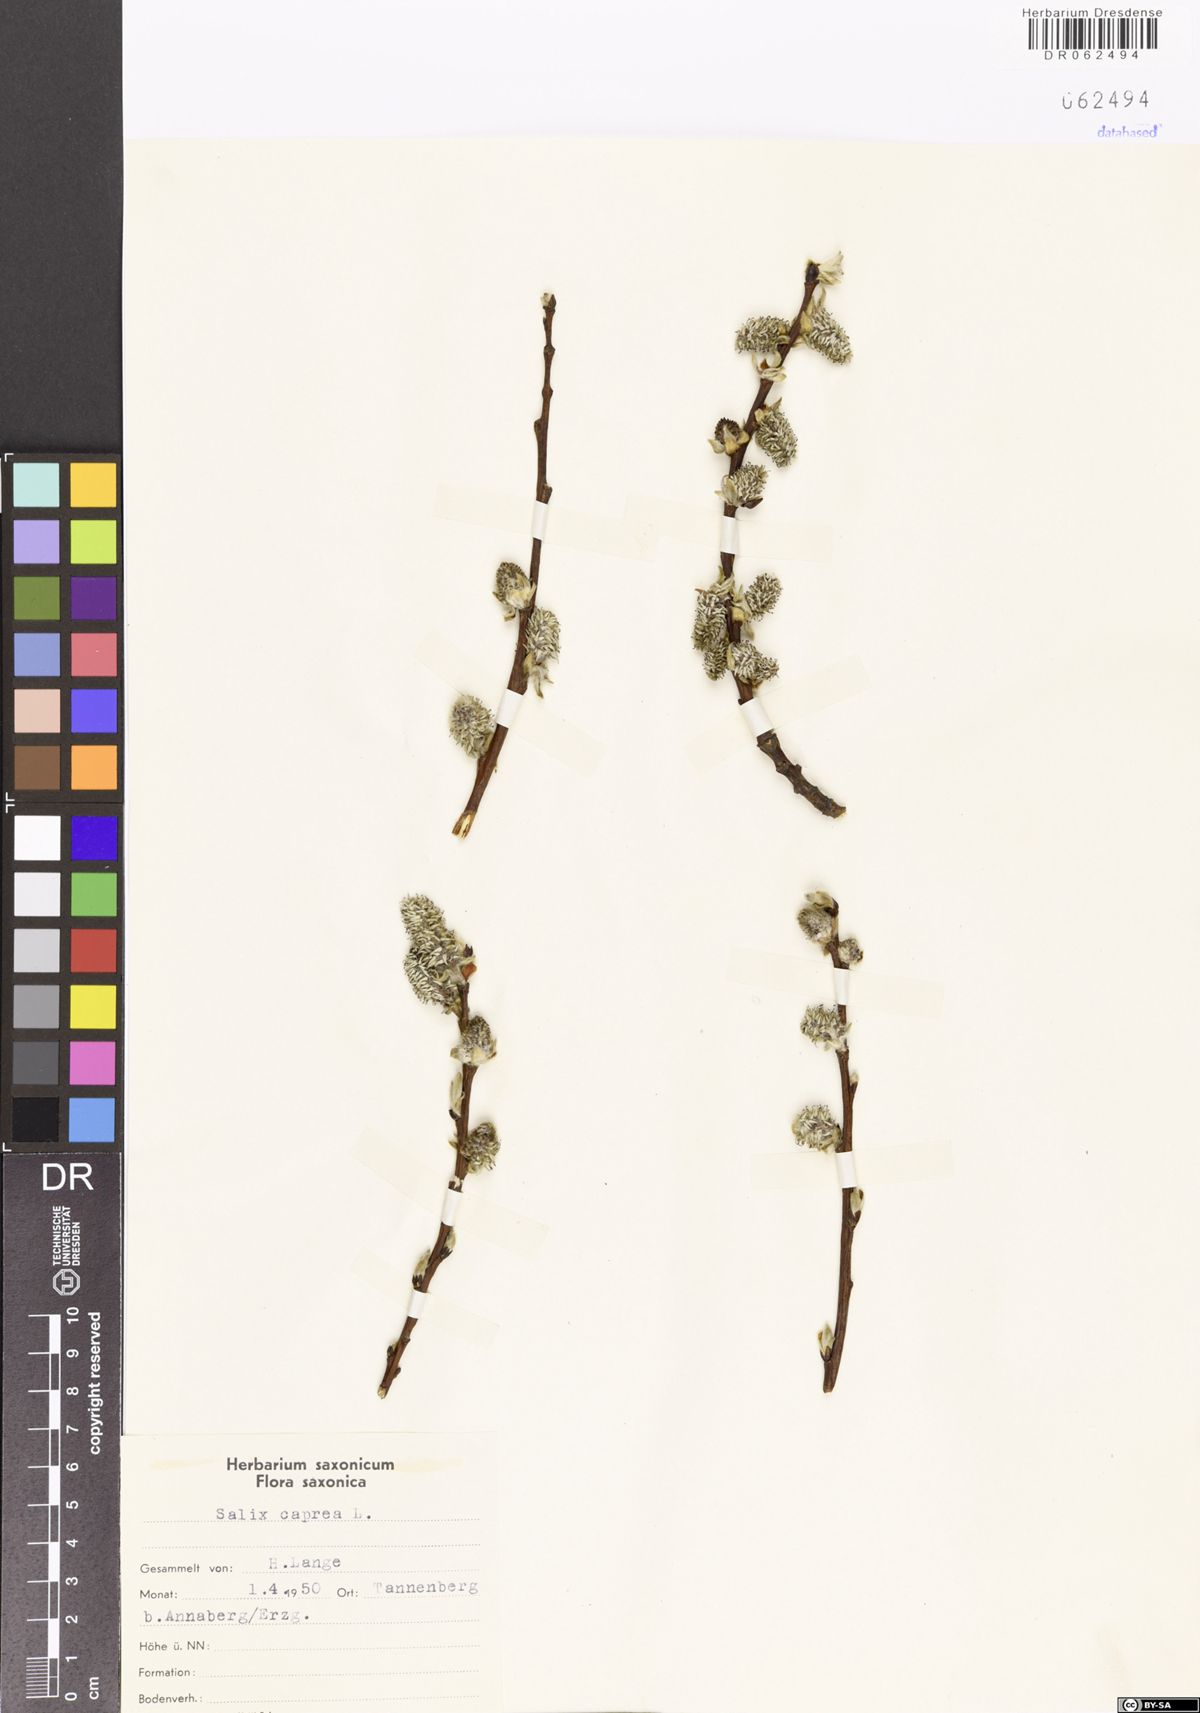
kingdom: Plantae
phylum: Tracheophyta
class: Magnoliopsida
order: Malpighiales
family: Salicaceae
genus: Salix
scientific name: Salix caprea
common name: Goat willow
